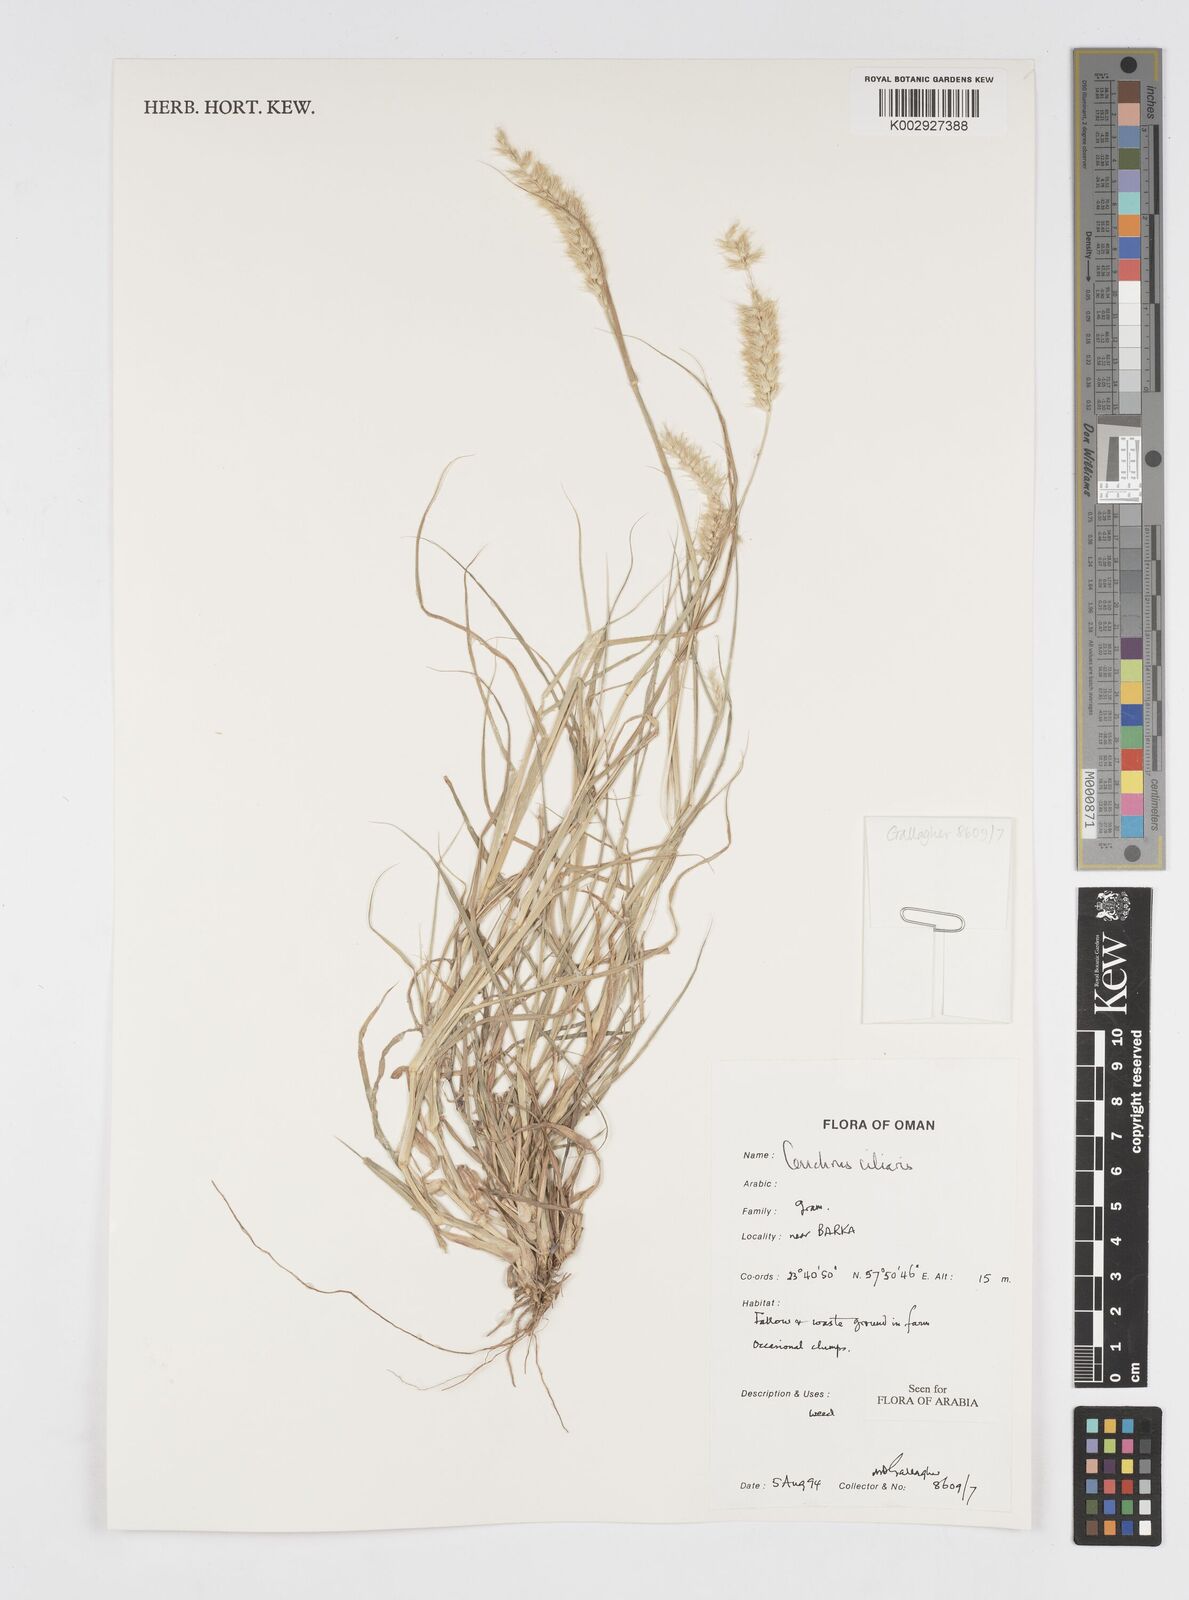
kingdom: Plantae
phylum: Tracheophyta
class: Liliopsida
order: Poales
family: Poaceae
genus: Cenchrus
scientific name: Cenchrus ciliaris
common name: Buffelgrass
